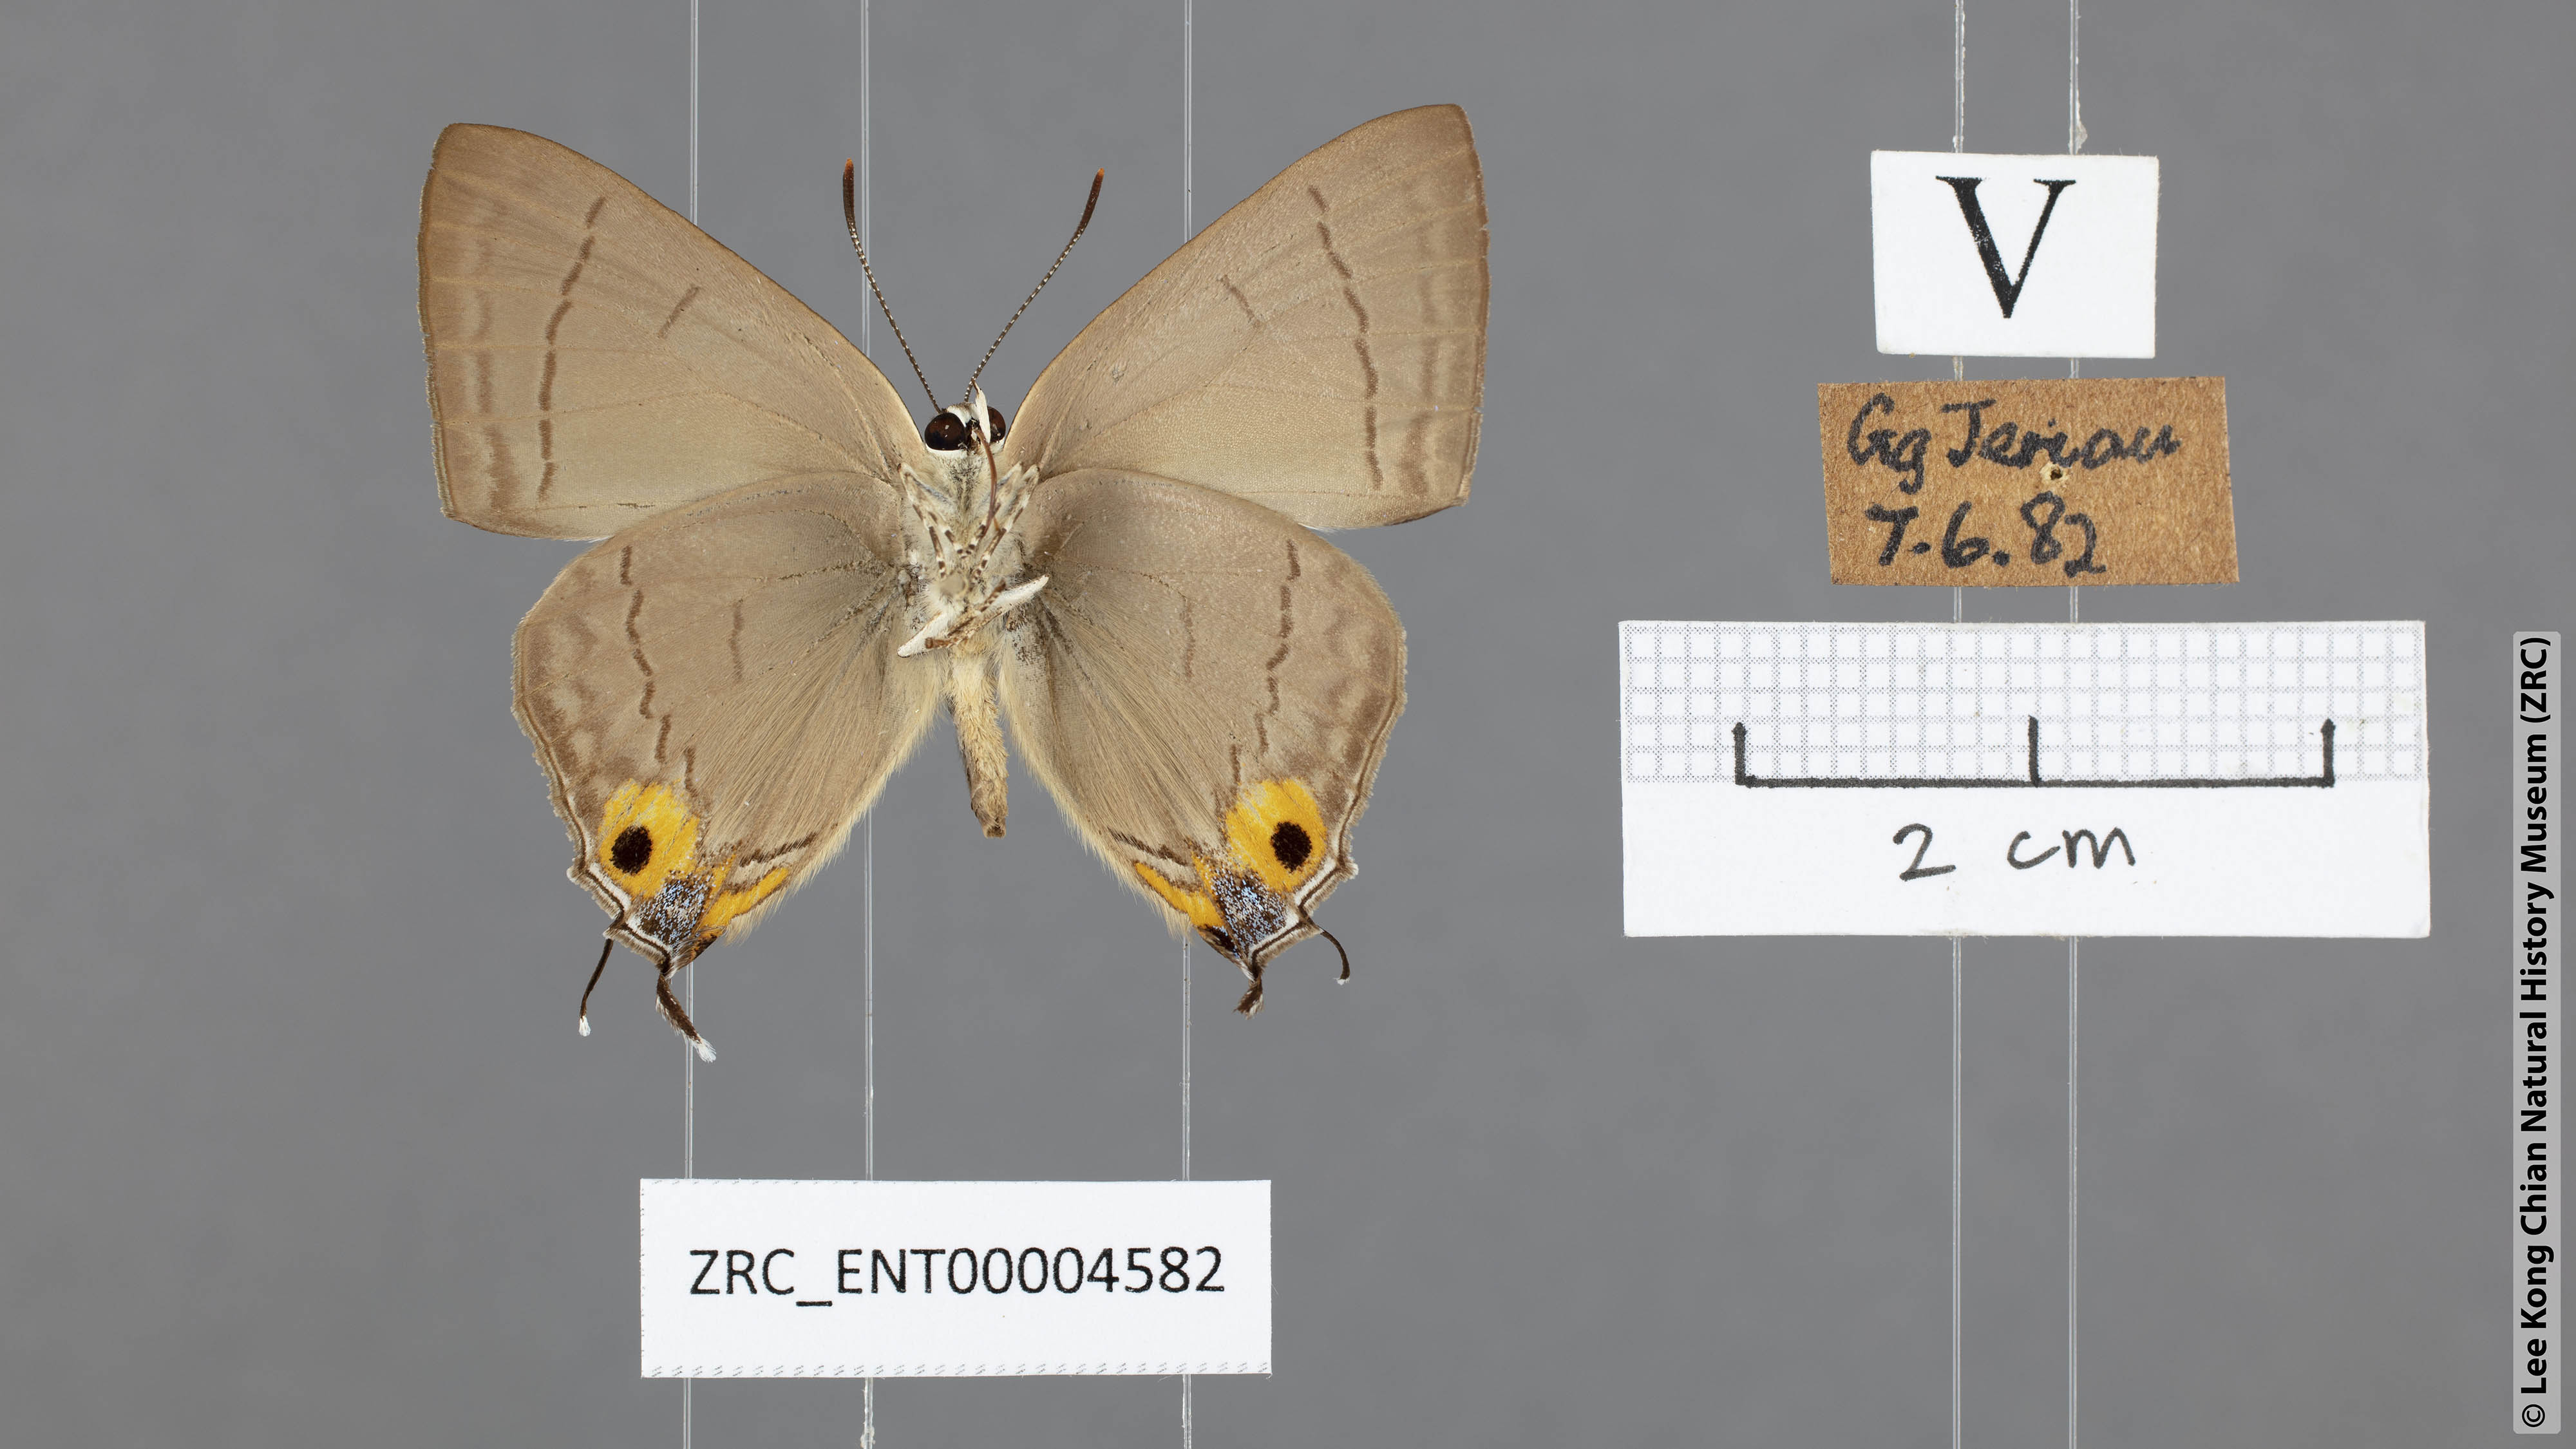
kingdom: Animalia
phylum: Arthropoda
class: Insecta
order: Lepidoptera
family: Lycaenidae
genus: Tajuria
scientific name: Tajuria albiplaga
